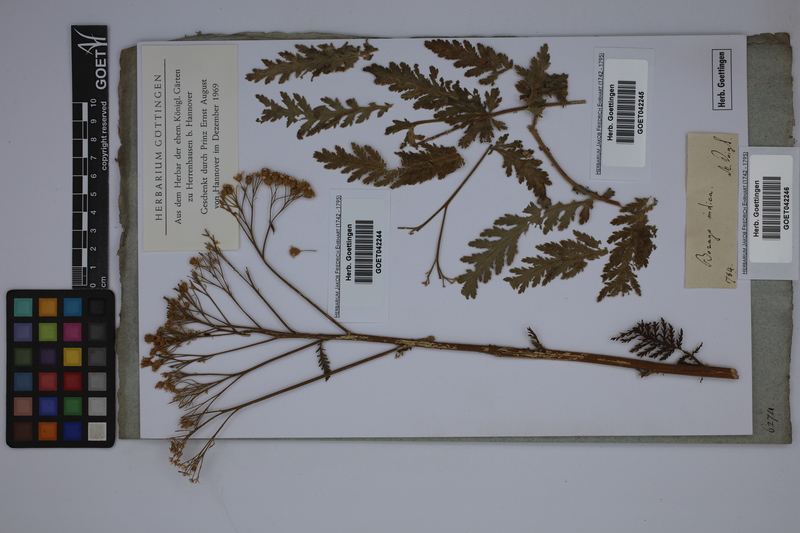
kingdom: Plantae
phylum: Tracheophyta
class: Magnoliopsida
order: Asterales
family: Asteraceae
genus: Tanacetum
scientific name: Tanacetum
